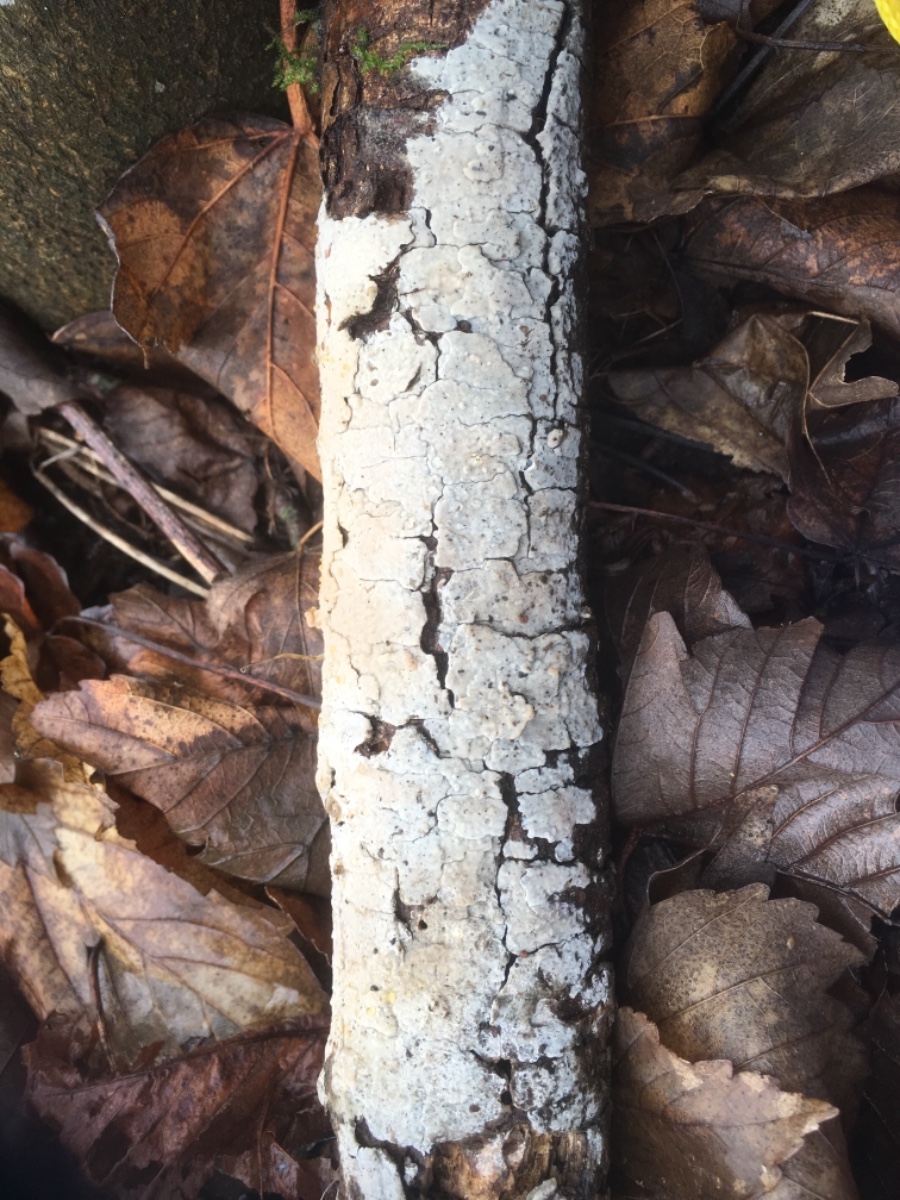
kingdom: Fungi
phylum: Basidiomycota
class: Agaricomycetes
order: Corticiales
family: Corticiaceae
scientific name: Corticiaceae
